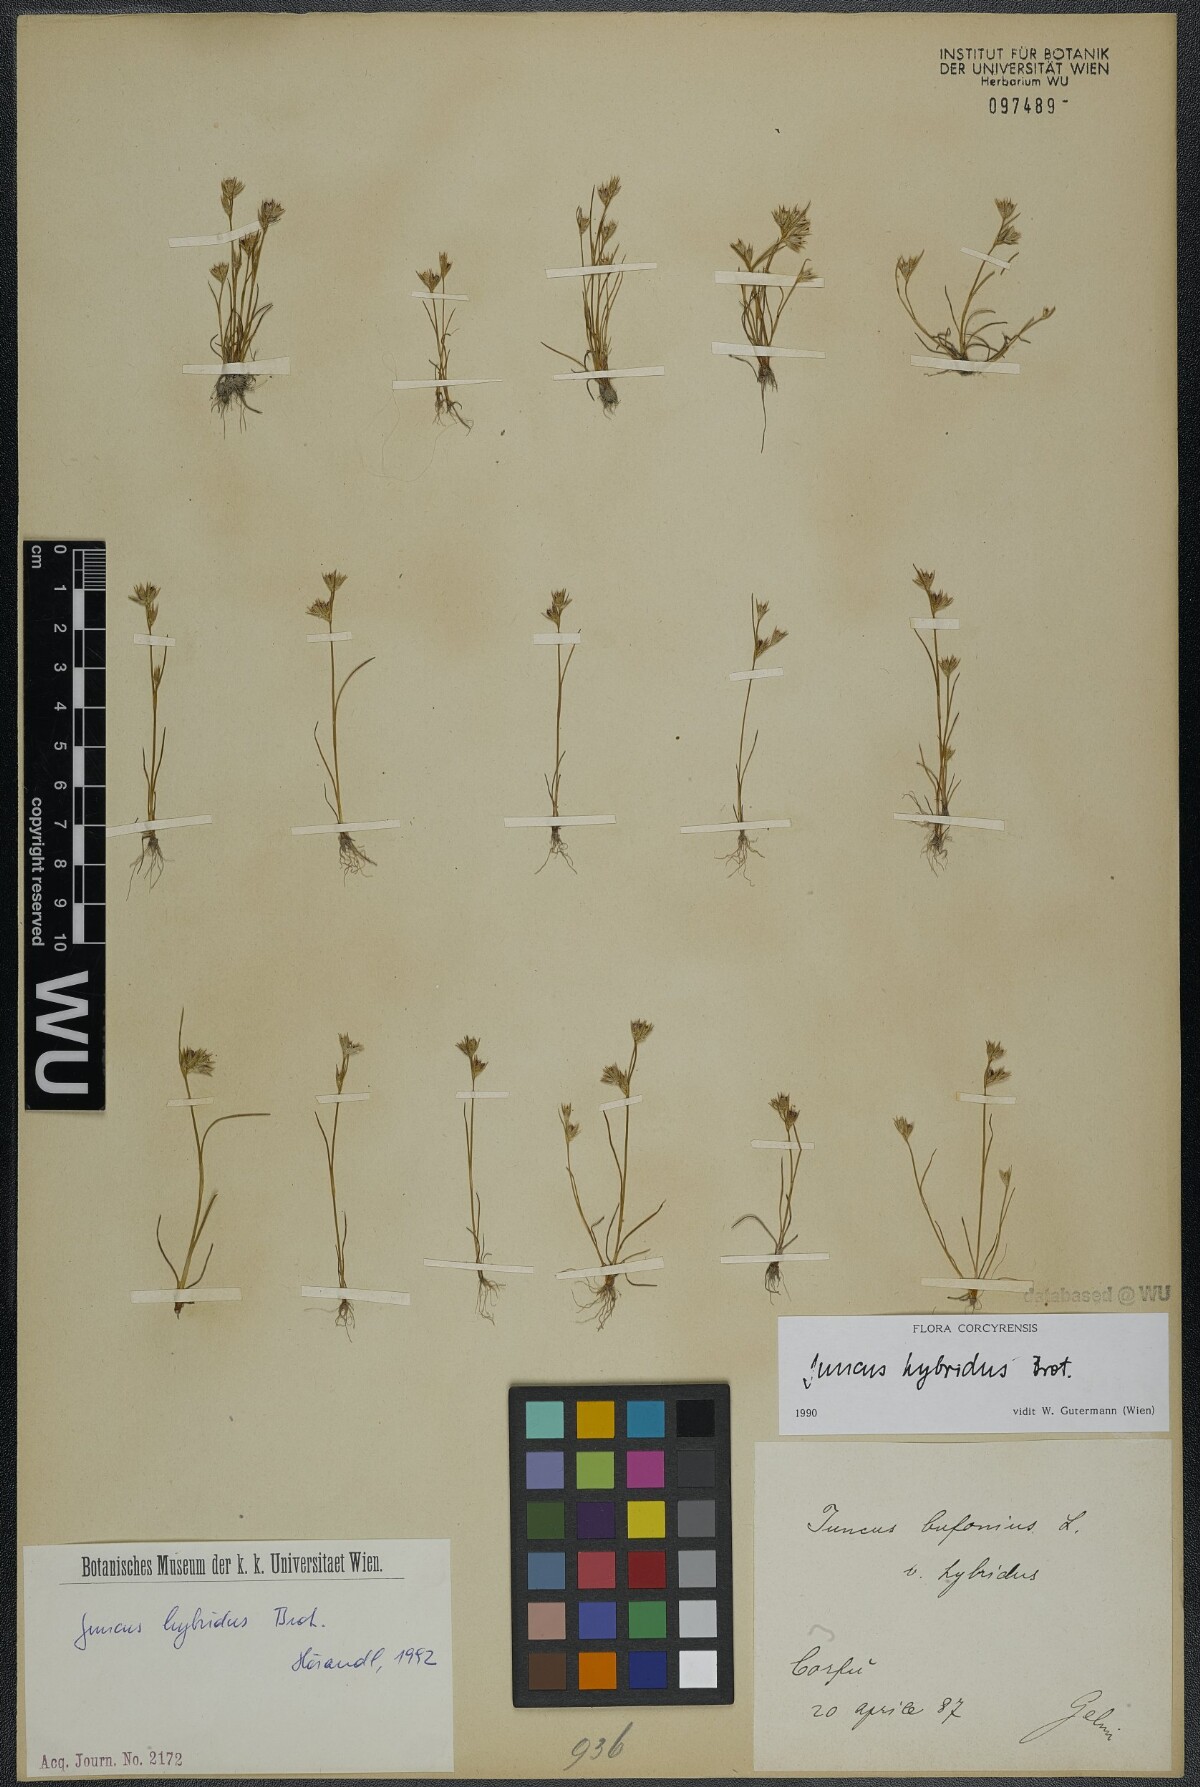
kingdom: Plantae
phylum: Tracheophyta
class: Liliopsida
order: Poales
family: Juncaceae
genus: Juncus
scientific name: Juncus hybridus
